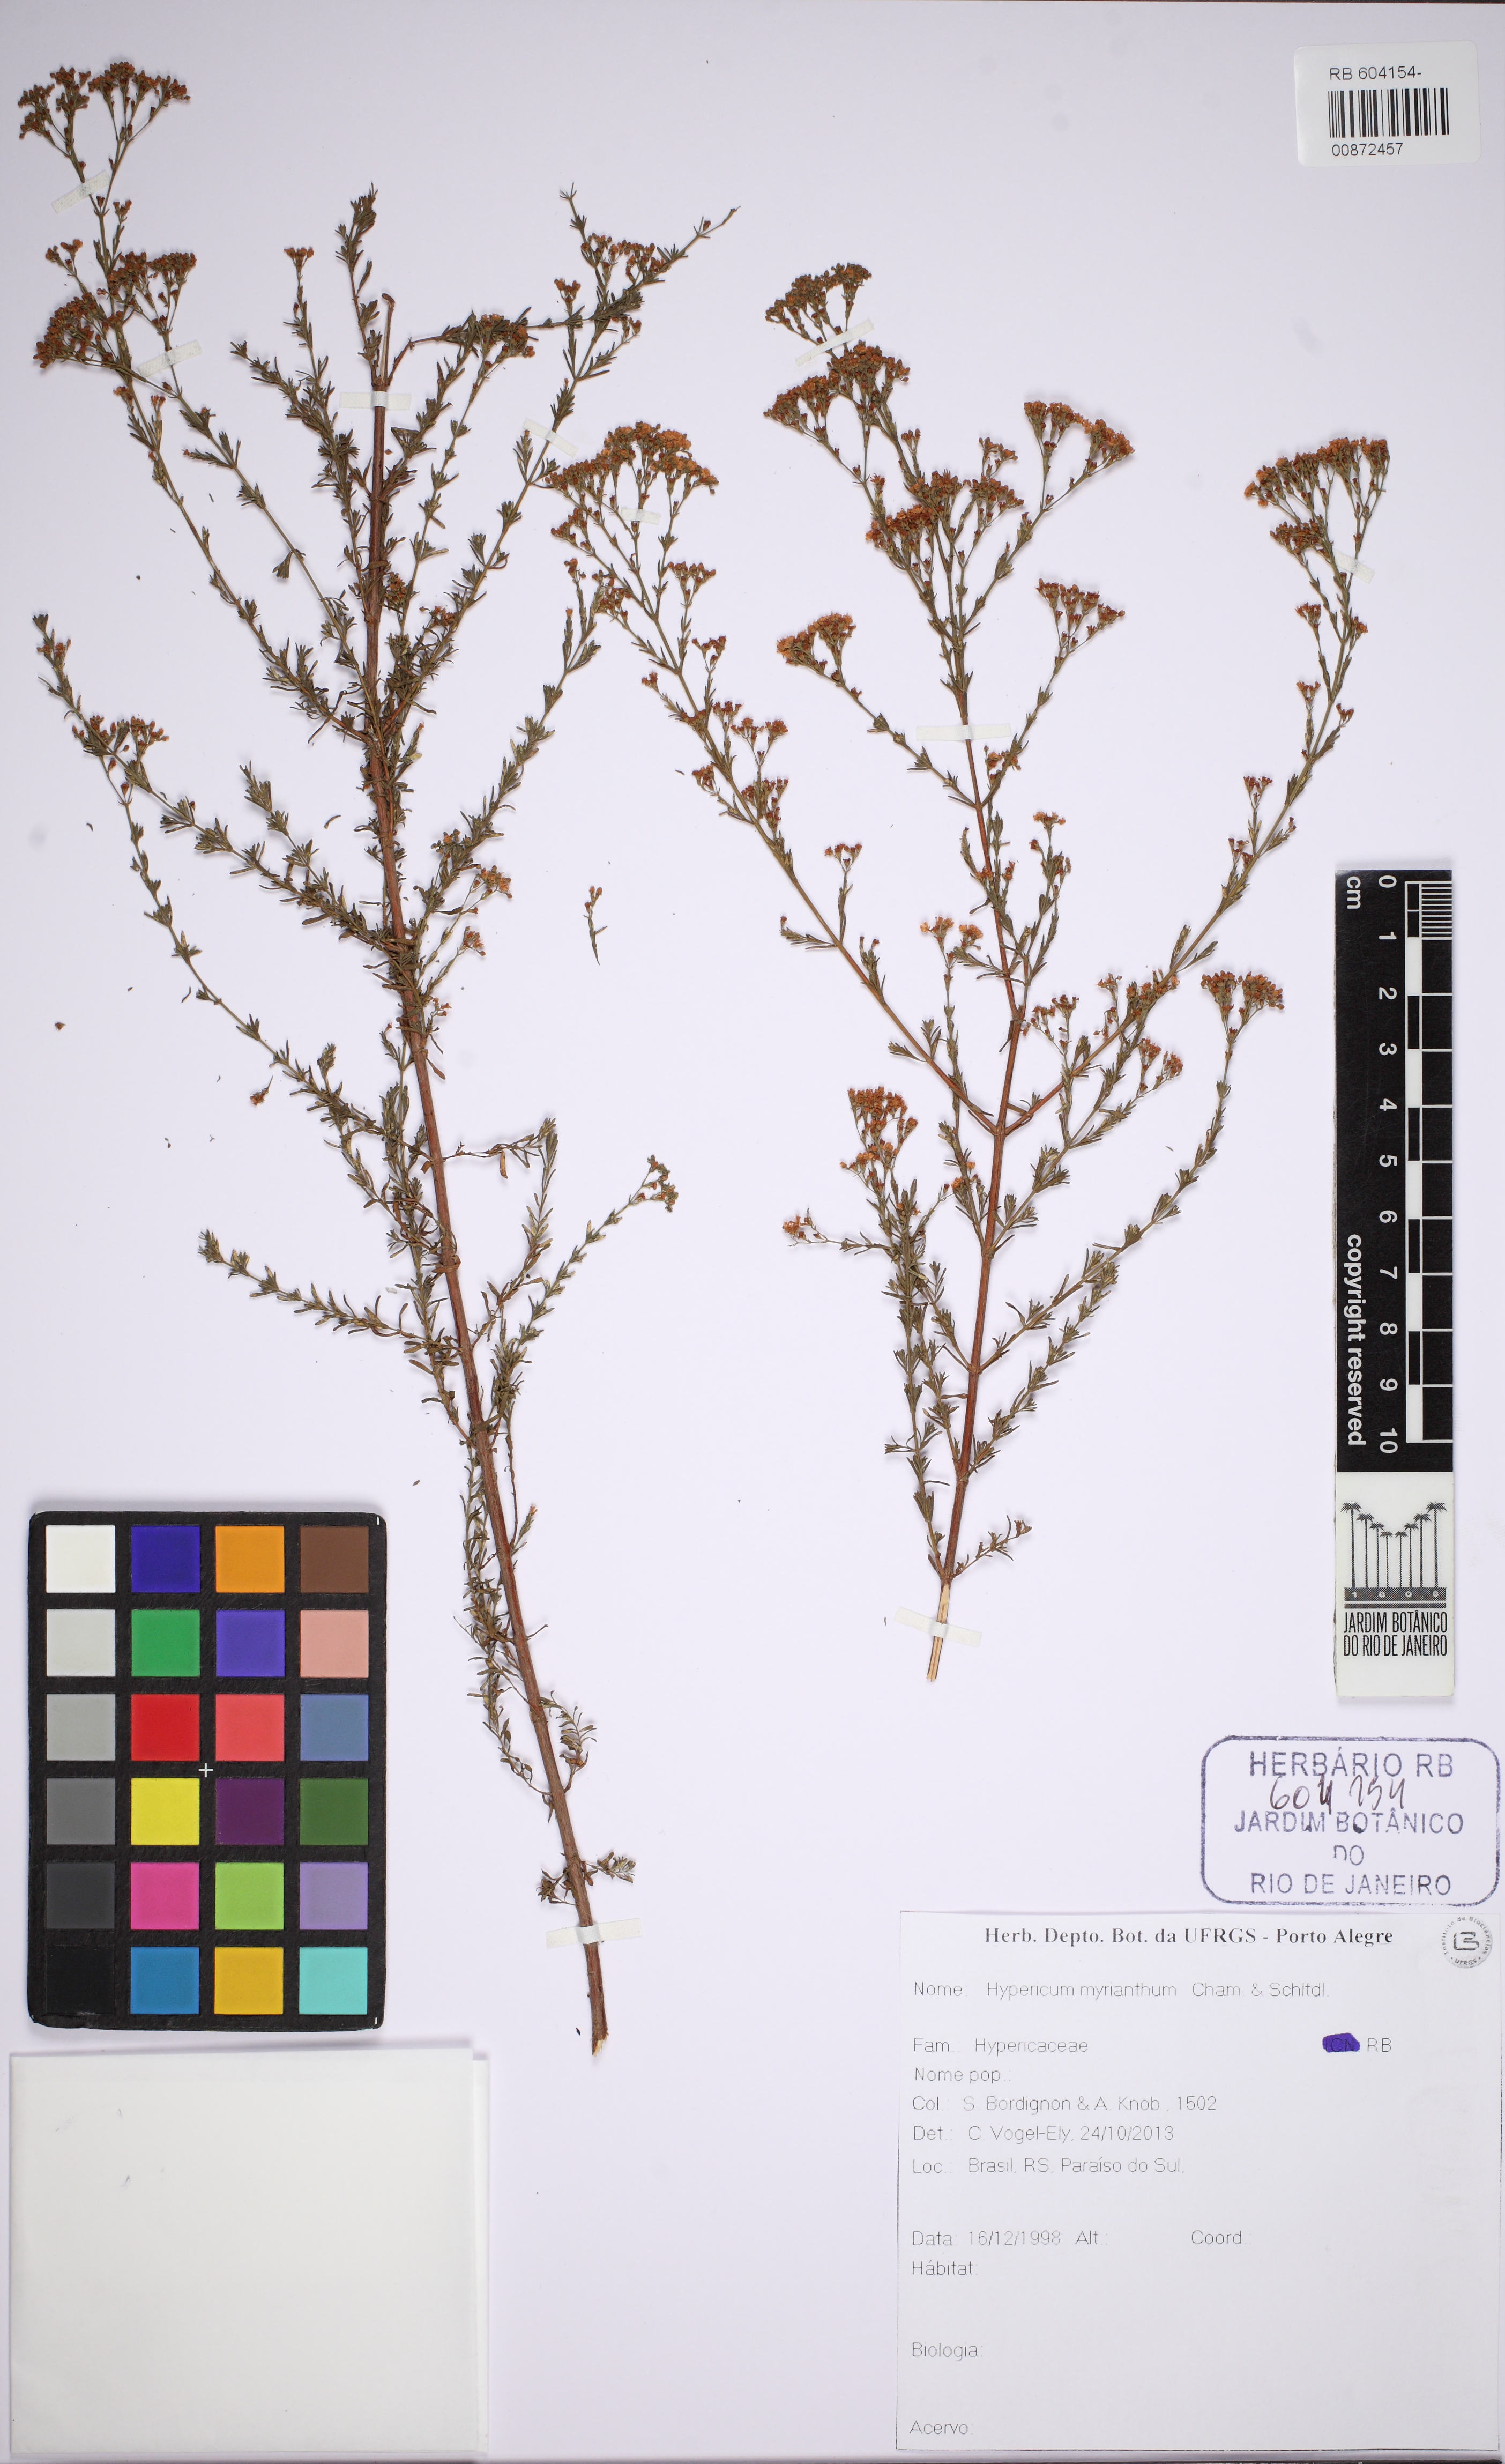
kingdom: Plantae
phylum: Tracheophyta
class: Magnoliopsida
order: Malpighiales
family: Hypericaceae
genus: Hypericum
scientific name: Hypericum myrianthum
